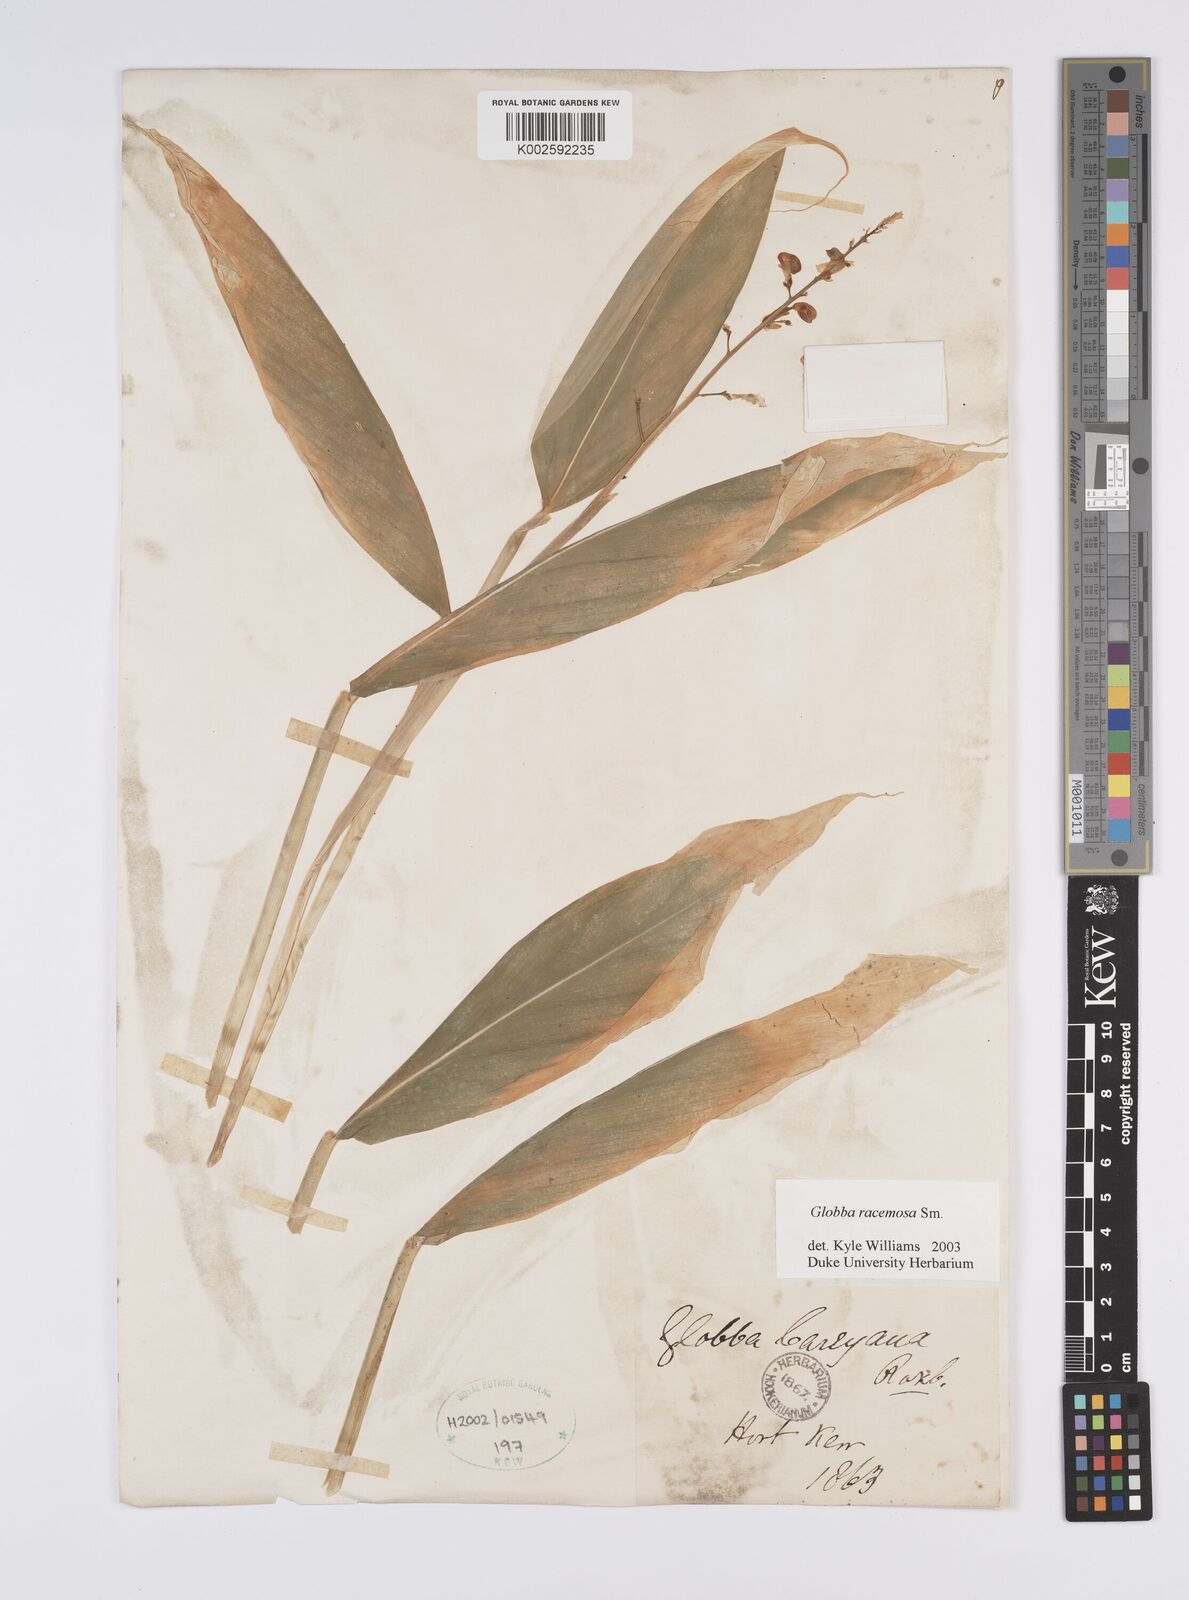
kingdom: Plantae
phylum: Tracheophyta
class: Liliopsida
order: Zingiberales
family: Zingiberaceae
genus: Globba
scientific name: Globba orixensis
